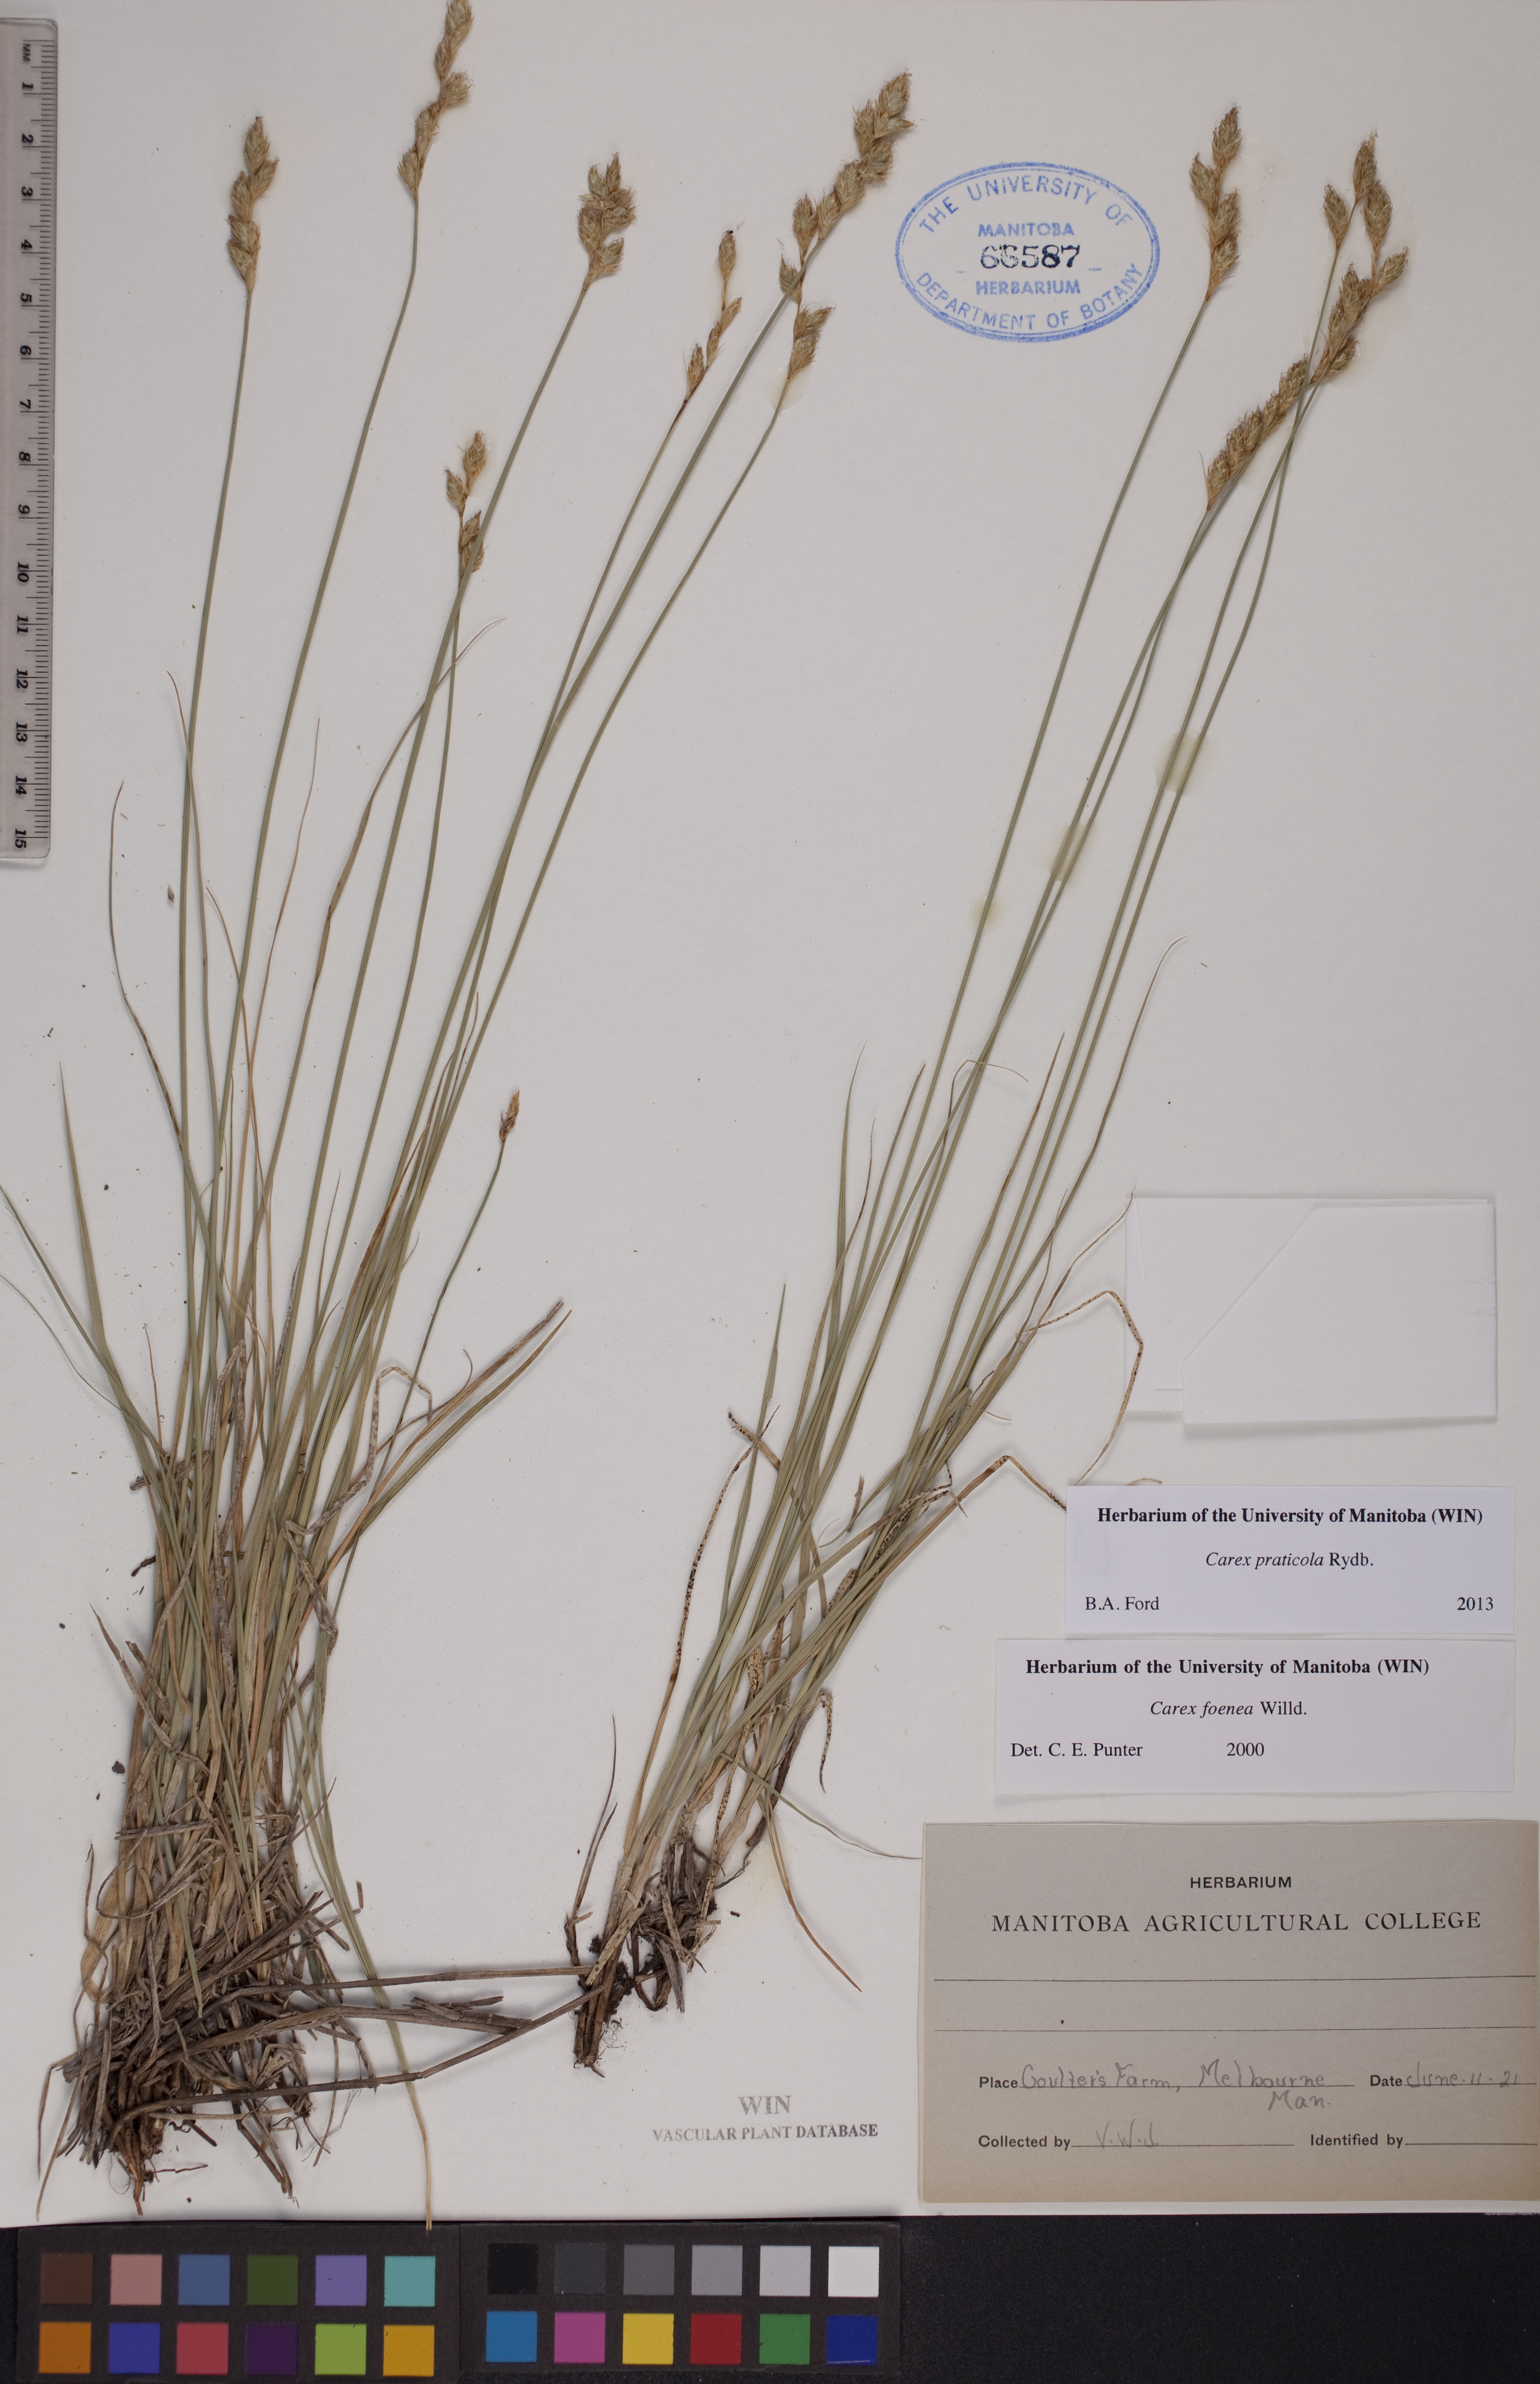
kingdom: Plantae
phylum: Tracheophyta
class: Liliopsida
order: Poales
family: Cyperaceae
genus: Carex
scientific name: Carex praticola
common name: Large-fruited oval sedge
